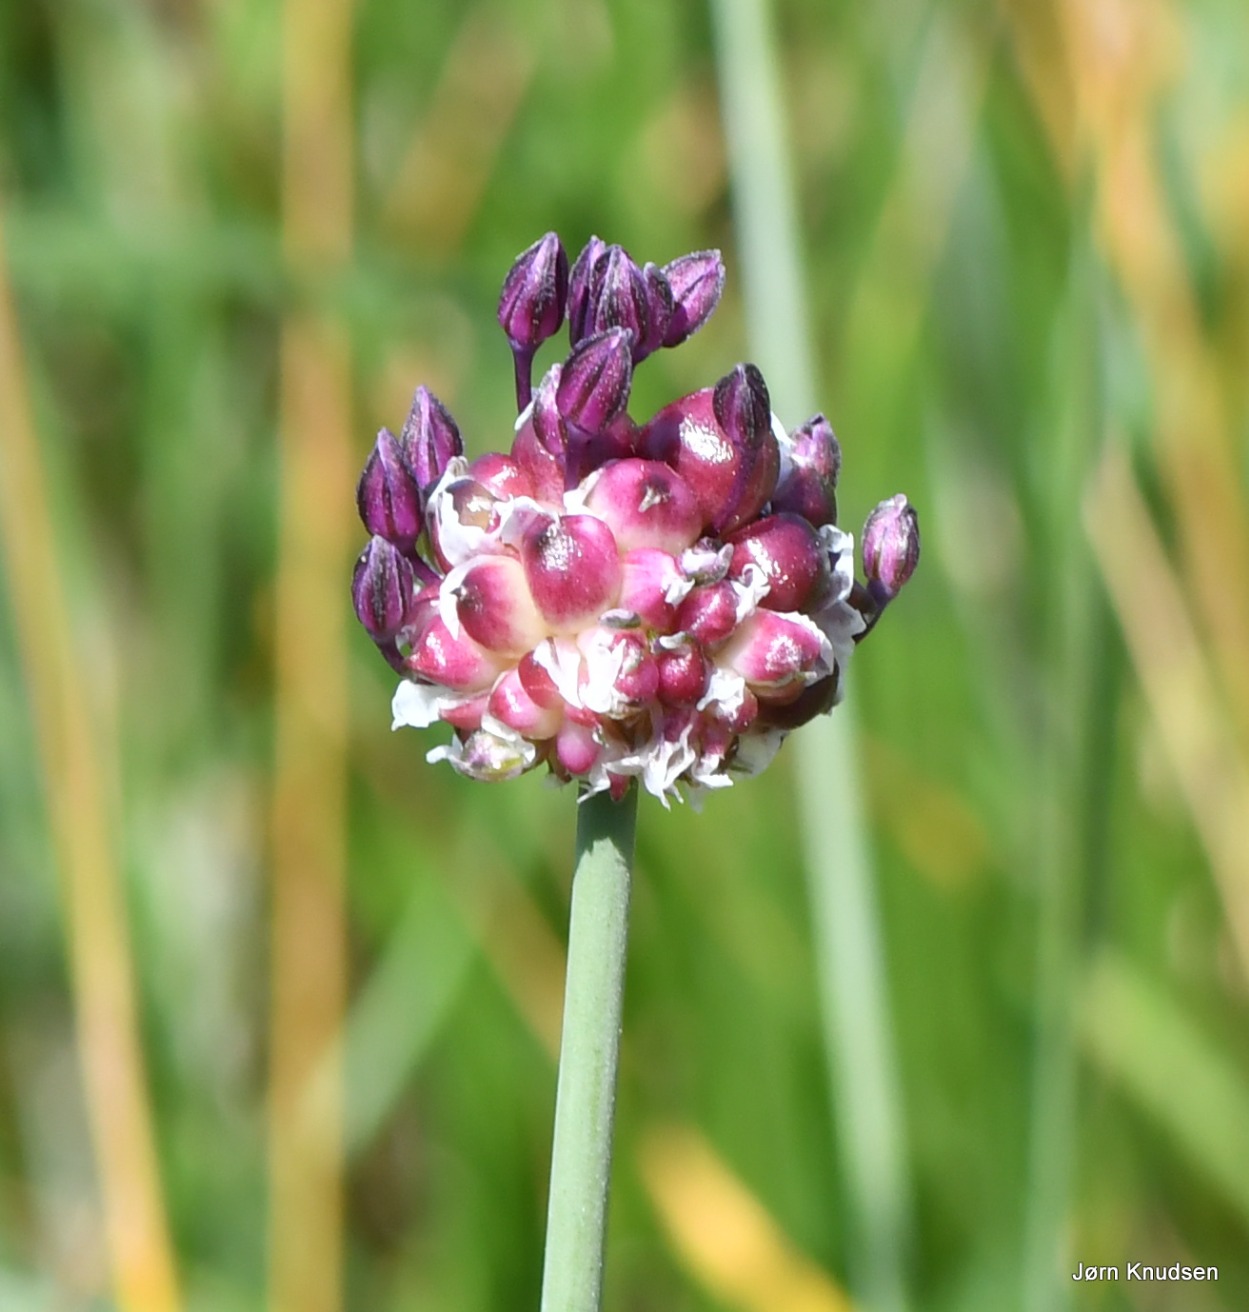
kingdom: Plantae
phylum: Tracheophyta
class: Liliopsida
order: Asparagales
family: Amaryllidaceae
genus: Allium
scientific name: Allium scorodoprasum
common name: Skov-løg
